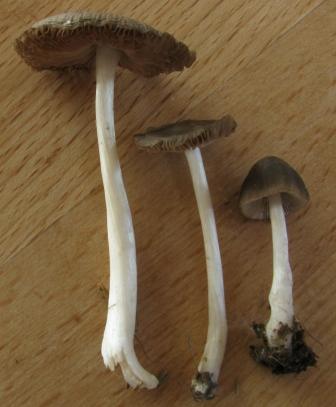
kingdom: Fungi
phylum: Basidiomycota
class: Agaricomycetes
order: Agaricales
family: Pluteaceae
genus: Pluteus
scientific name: Pluteus
